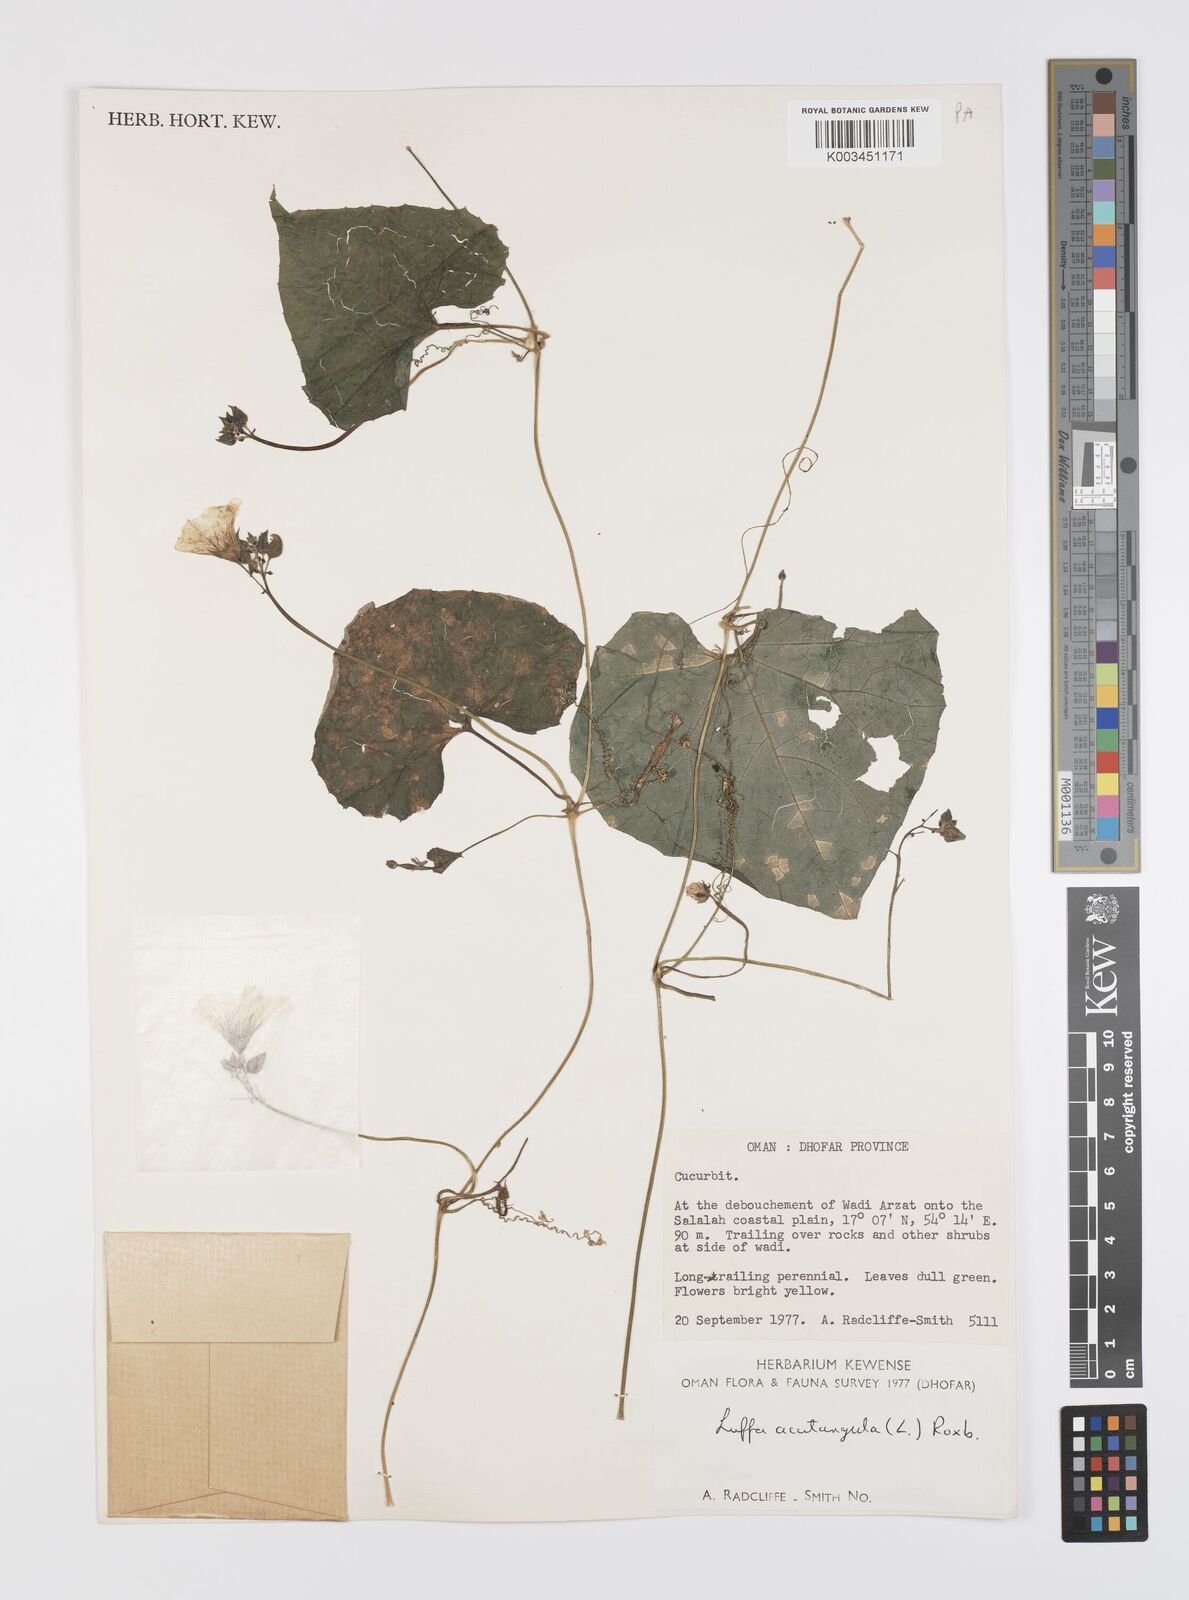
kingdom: Plantae
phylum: Tracheophyta
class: Magnoliopsida
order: Cucurbitales
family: Cucurbitaceae
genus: Luffa
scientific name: Luffa acutangula
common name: Sinkwa towelsponge
